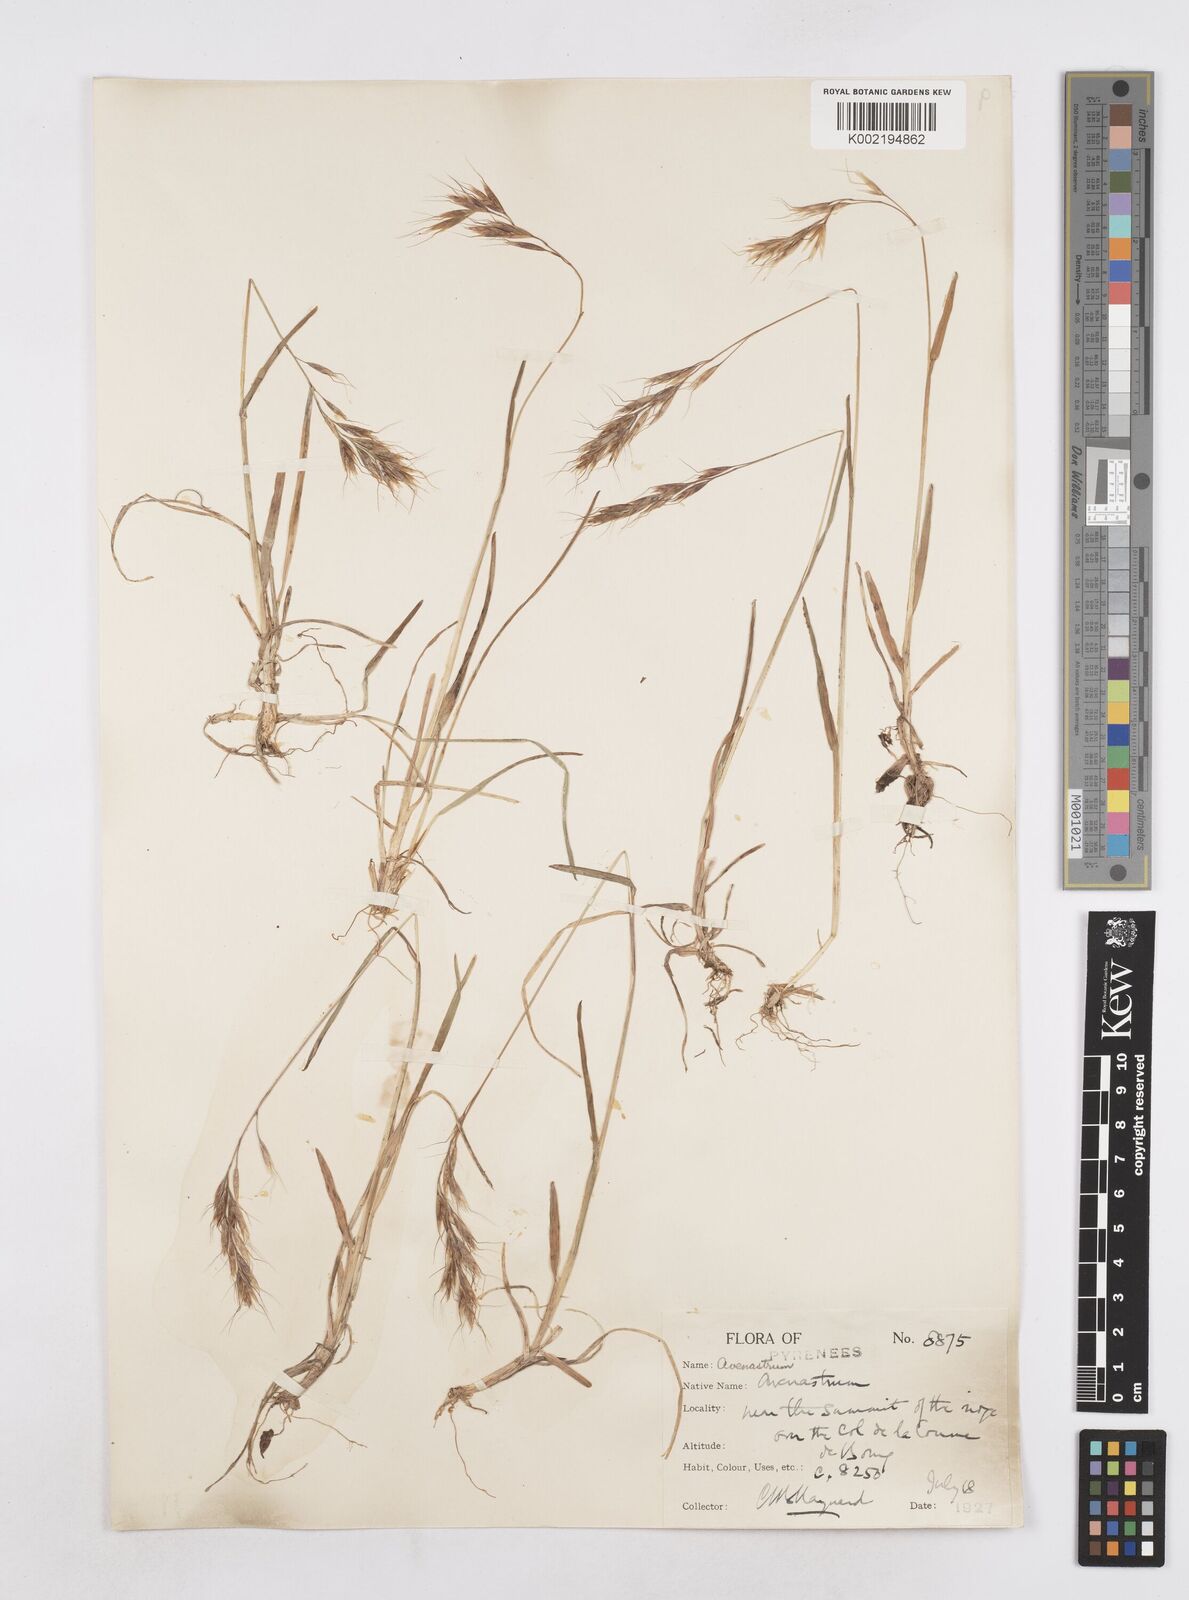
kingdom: Plantae
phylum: Tracheophyta
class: Liliopsida
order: Poales
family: Poaceae
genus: Helictochloa
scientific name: Helictochloa versicolor
